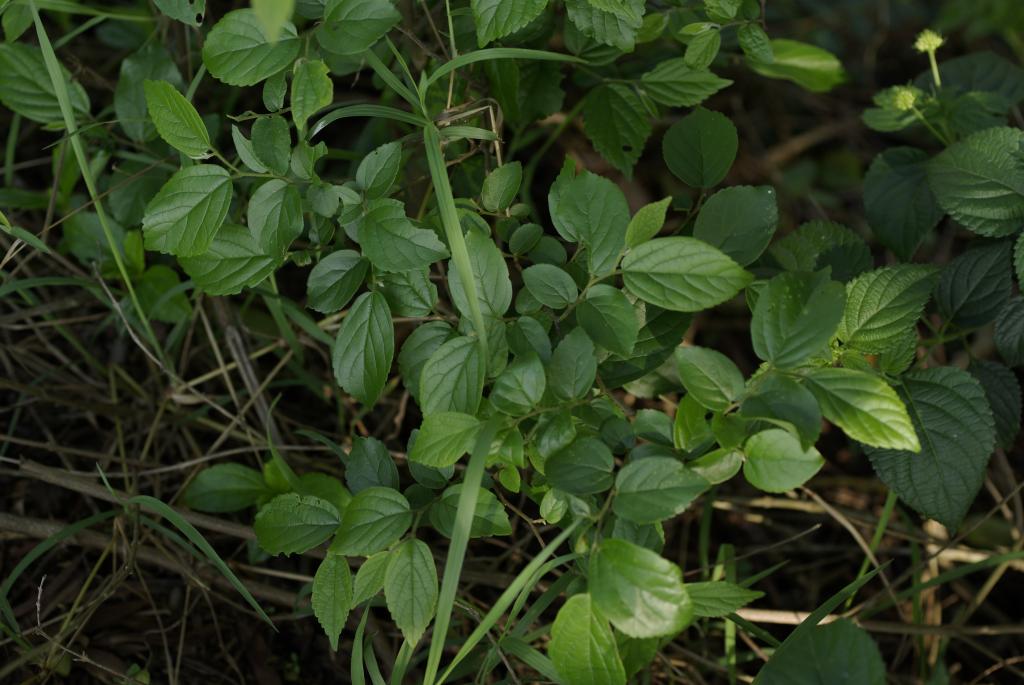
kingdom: Plantae
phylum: Tracheophyta
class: Magnoliopsida
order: Rosales
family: Cannabaceae
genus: Celtis
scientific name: Celtis sinensis
